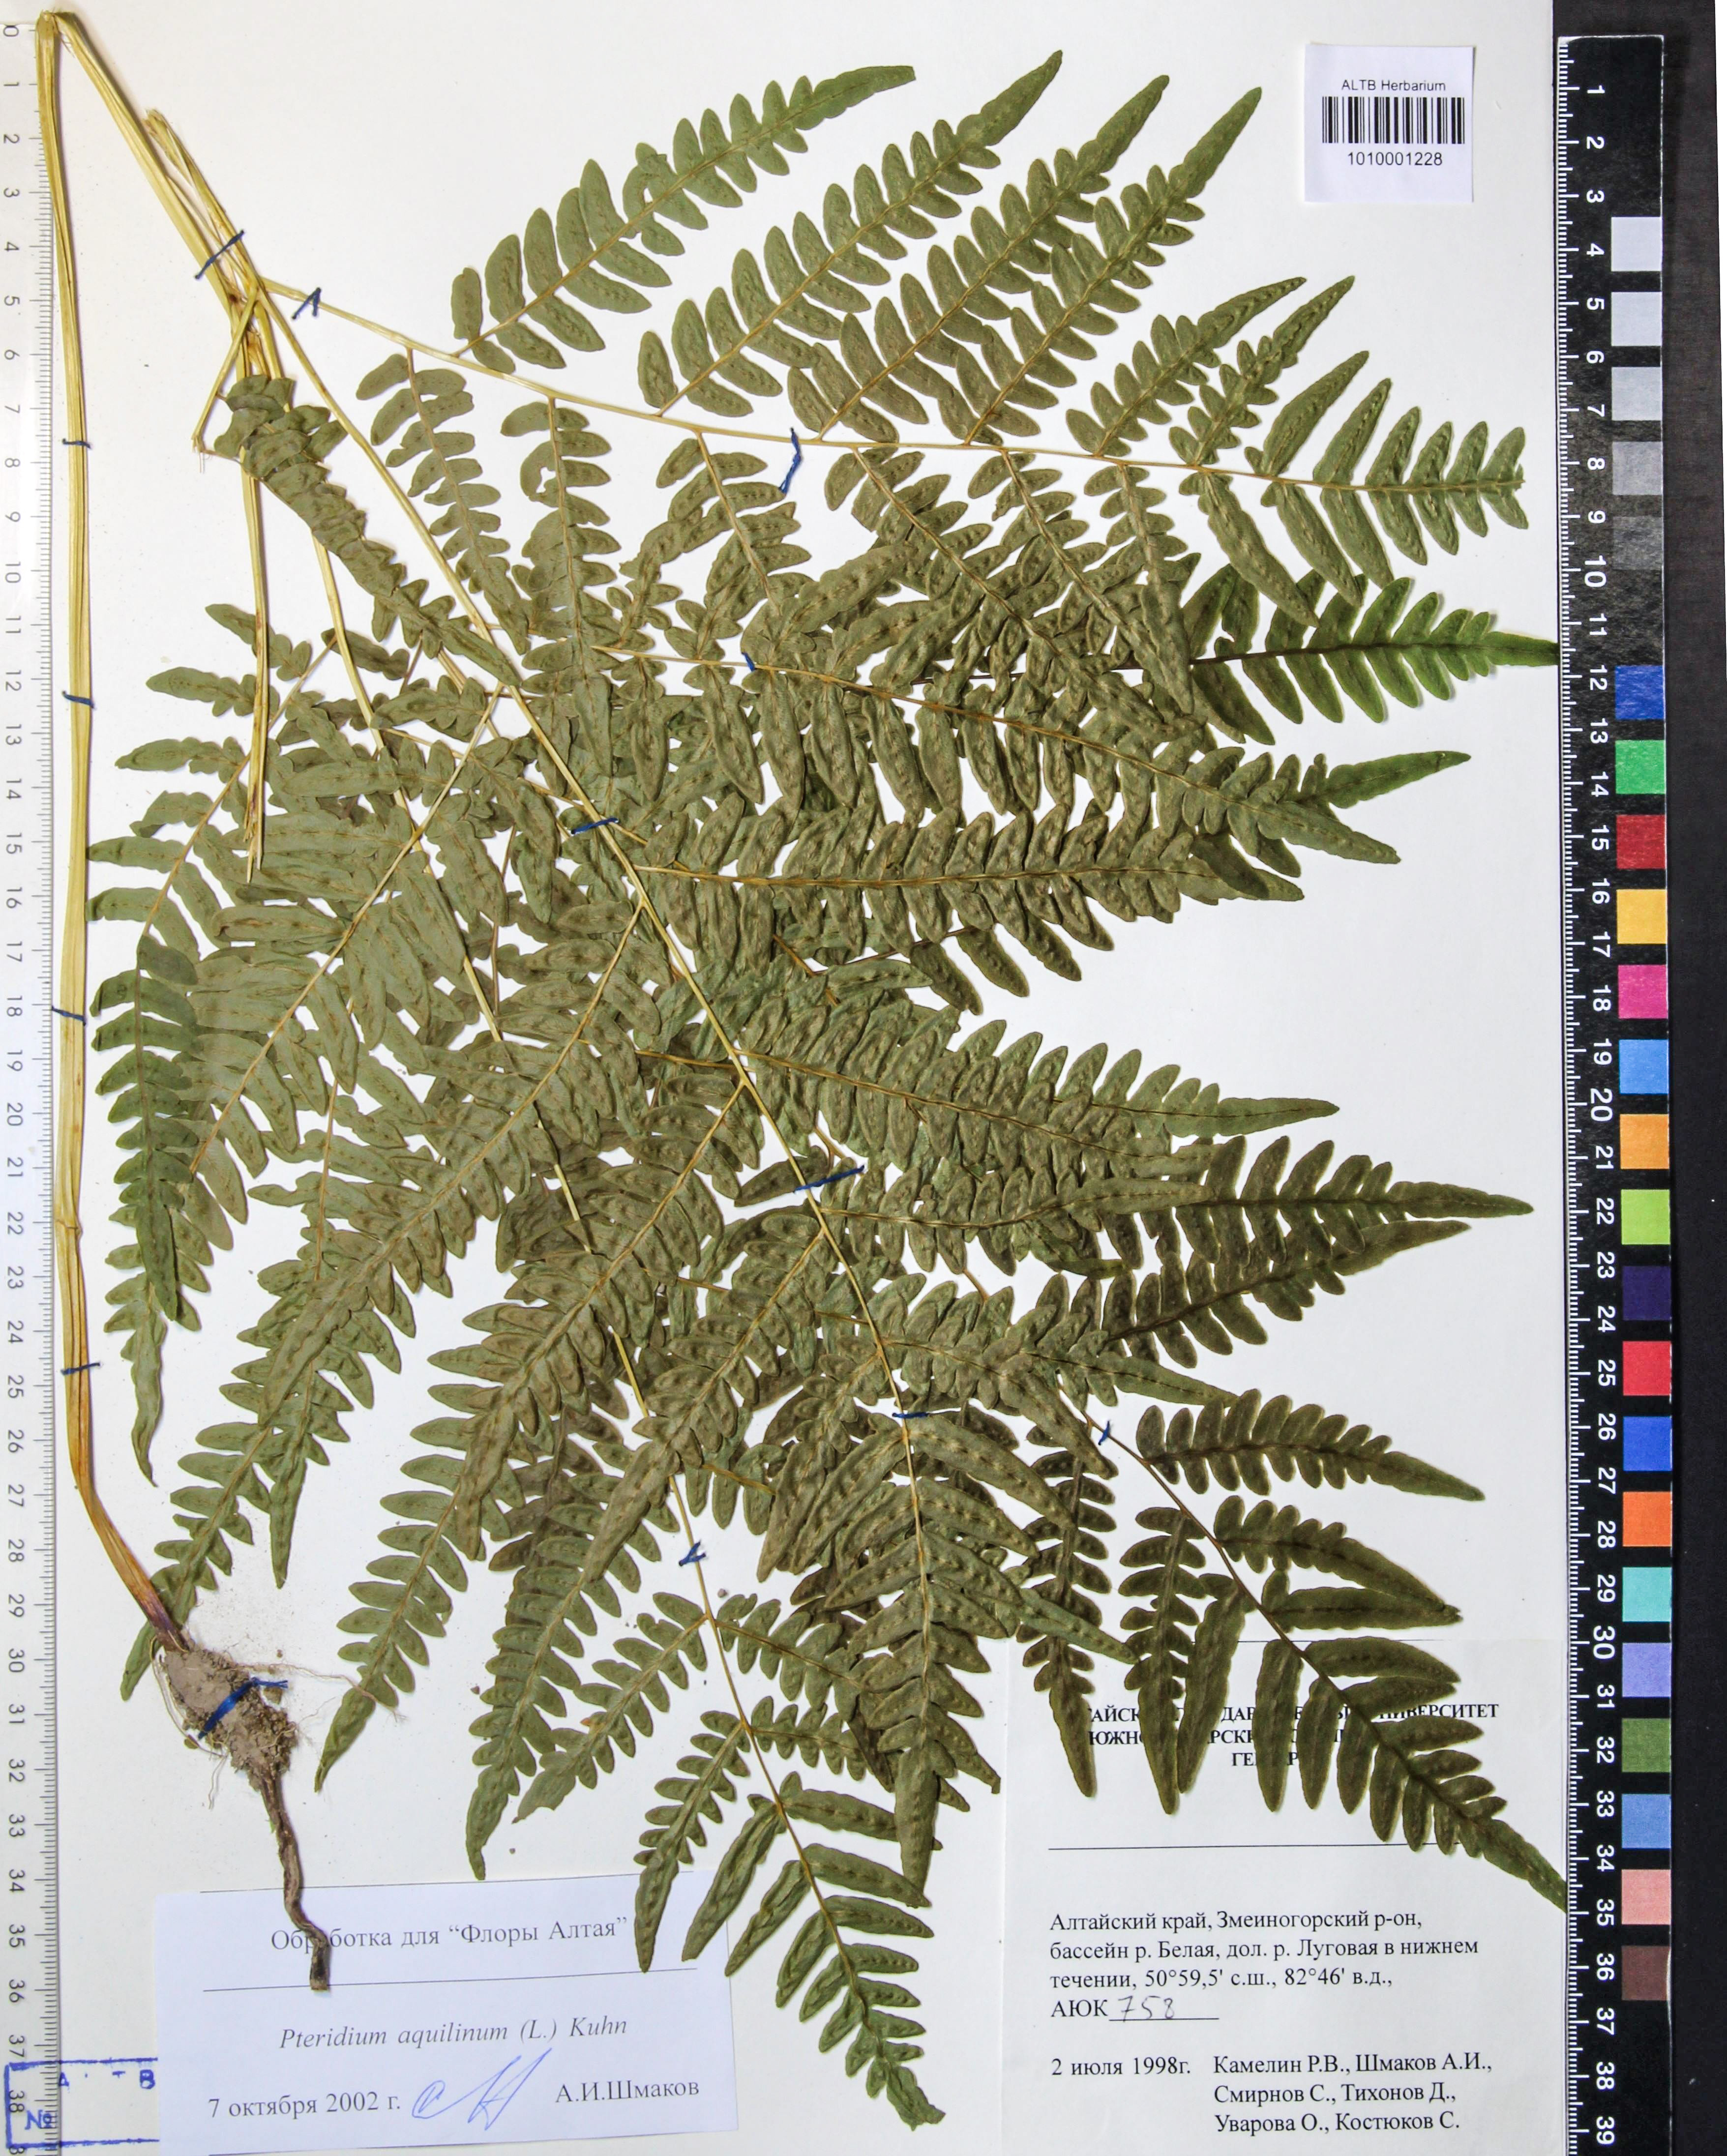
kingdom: Plantae
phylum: Tracheophyta
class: Polypodiopsida
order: Polypodiales
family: Dennstaedtiaceae
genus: Pteridium
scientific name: Pteridium aquilinum
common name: Bracken
